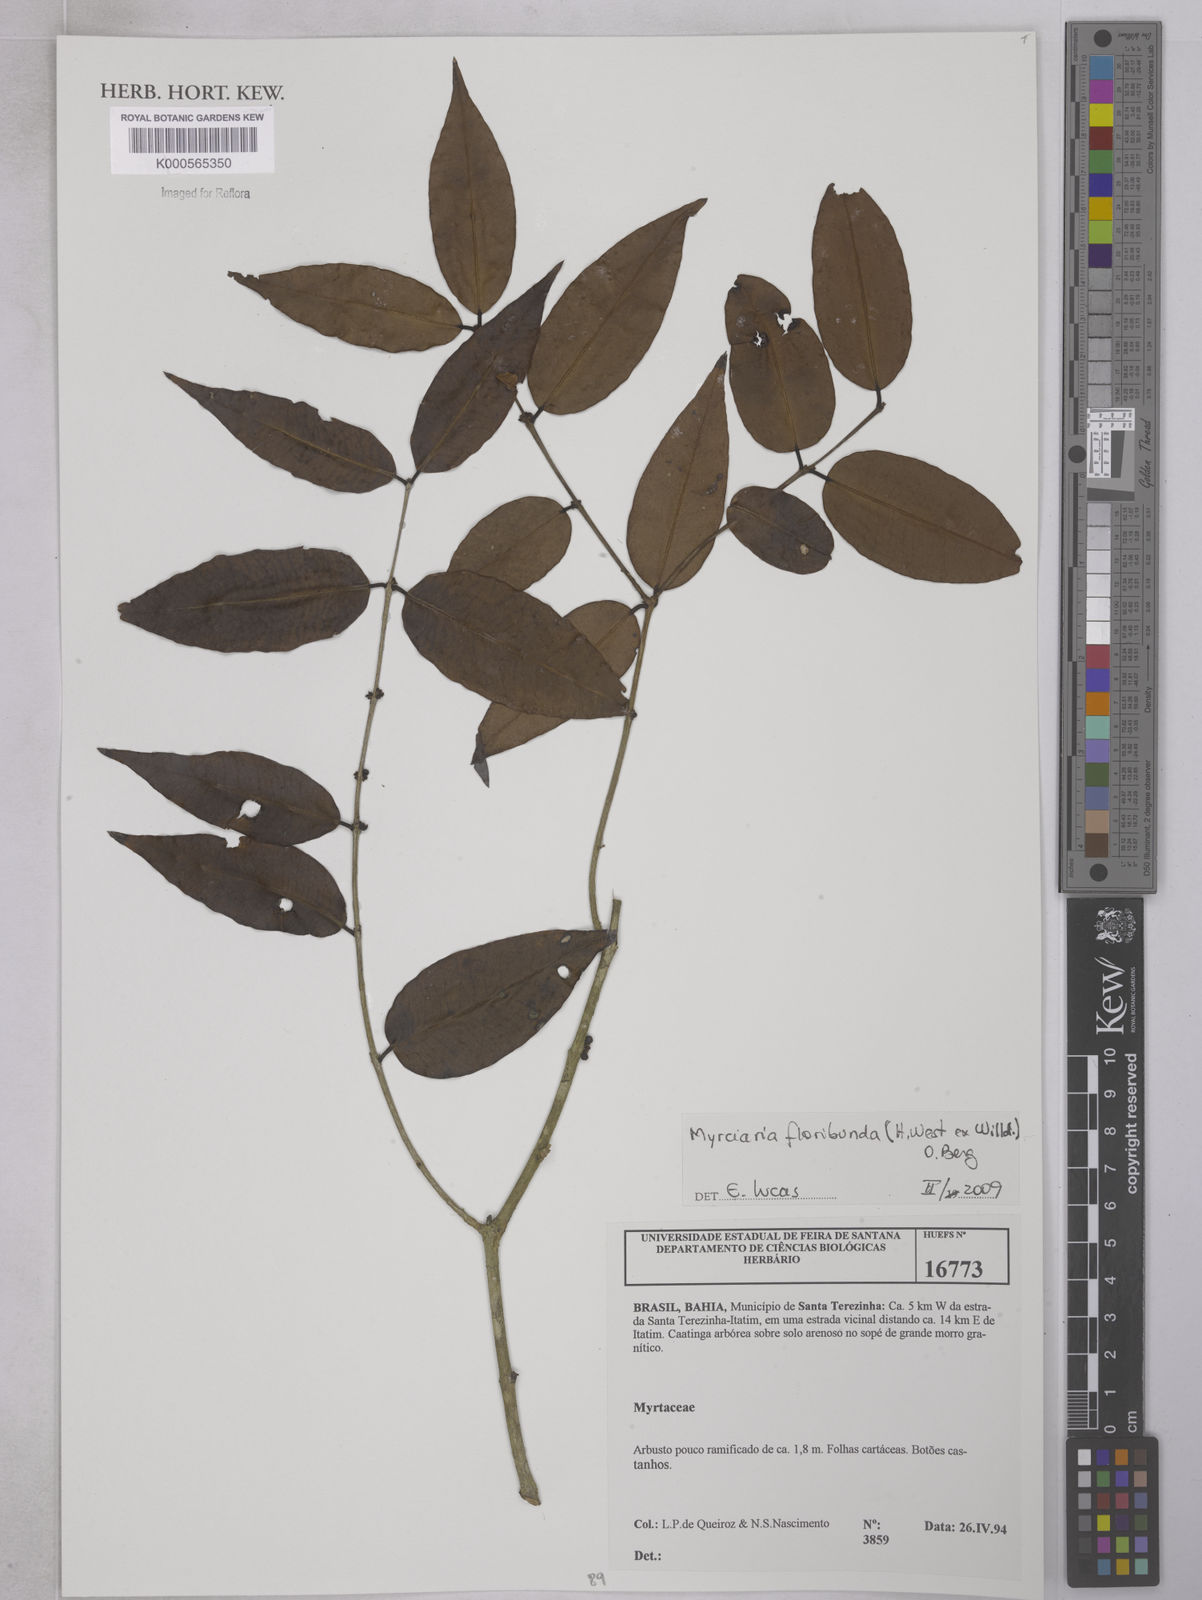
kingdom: Plantae
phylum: Tracheophyta
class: Magnoliopsida
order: Myrtales
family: Myrtaceae
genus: Myrciaria
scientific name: Myrciaria floribunda
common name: Guavaberry
